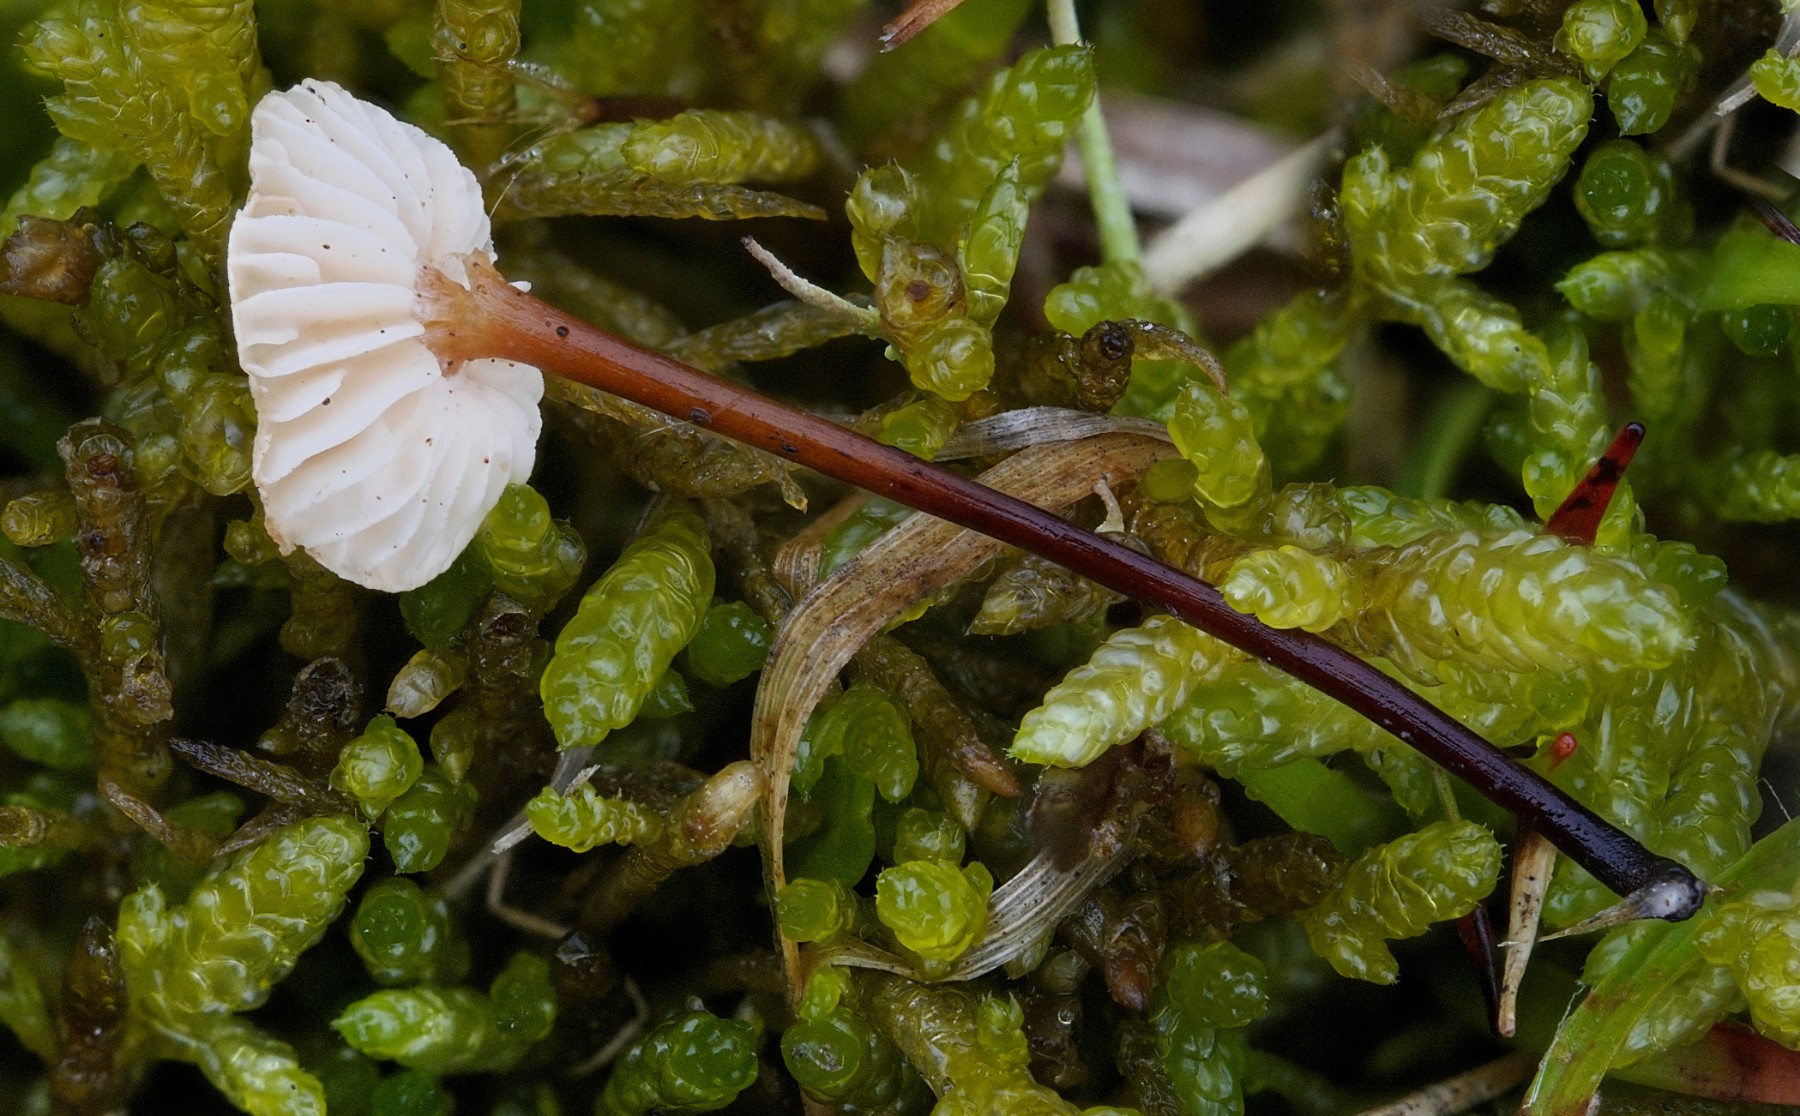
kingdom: Fungi
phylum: Basidiomycota
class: Agaricomycetes
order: Agaricales
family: Omphalotaceae
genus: Mycetinis
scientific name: Mycetinis scorodonius
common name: lille løghat
